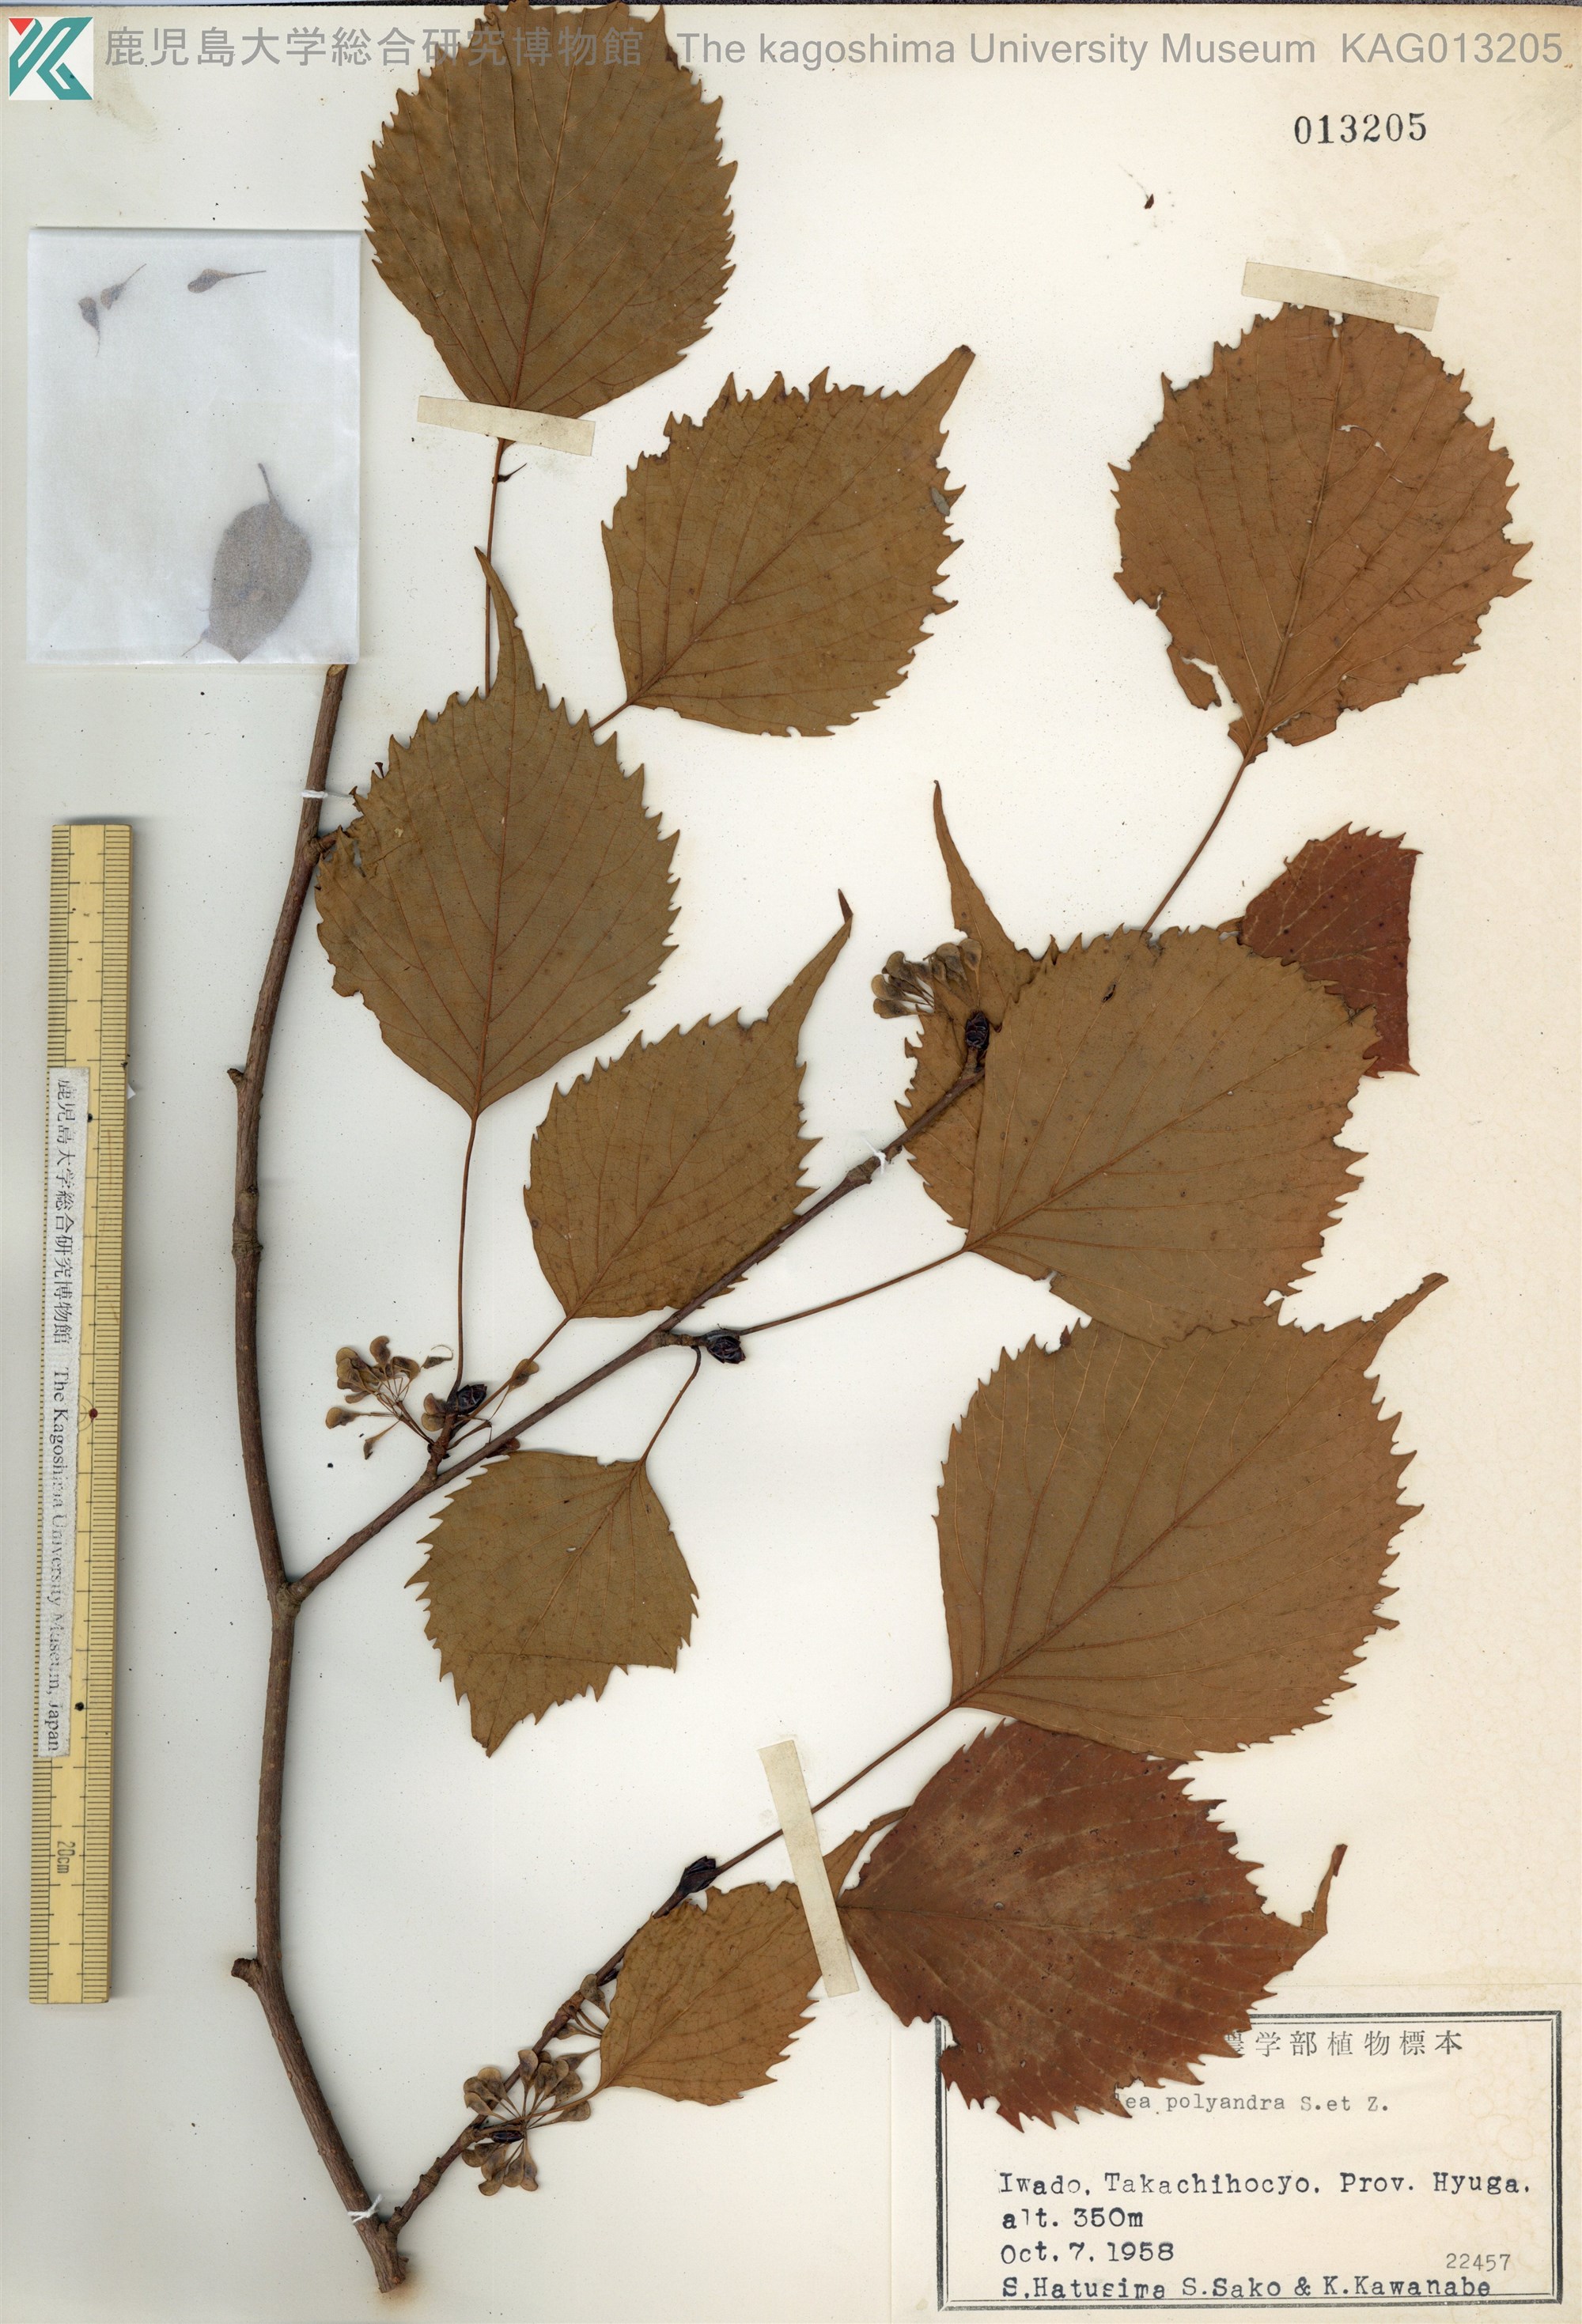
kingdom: Plantae
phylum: Tracheophyta
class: Magnoliopsida
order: Ranunculales
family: Eupteleaceae
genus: Euptelea
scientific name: Euptelea polyandra
